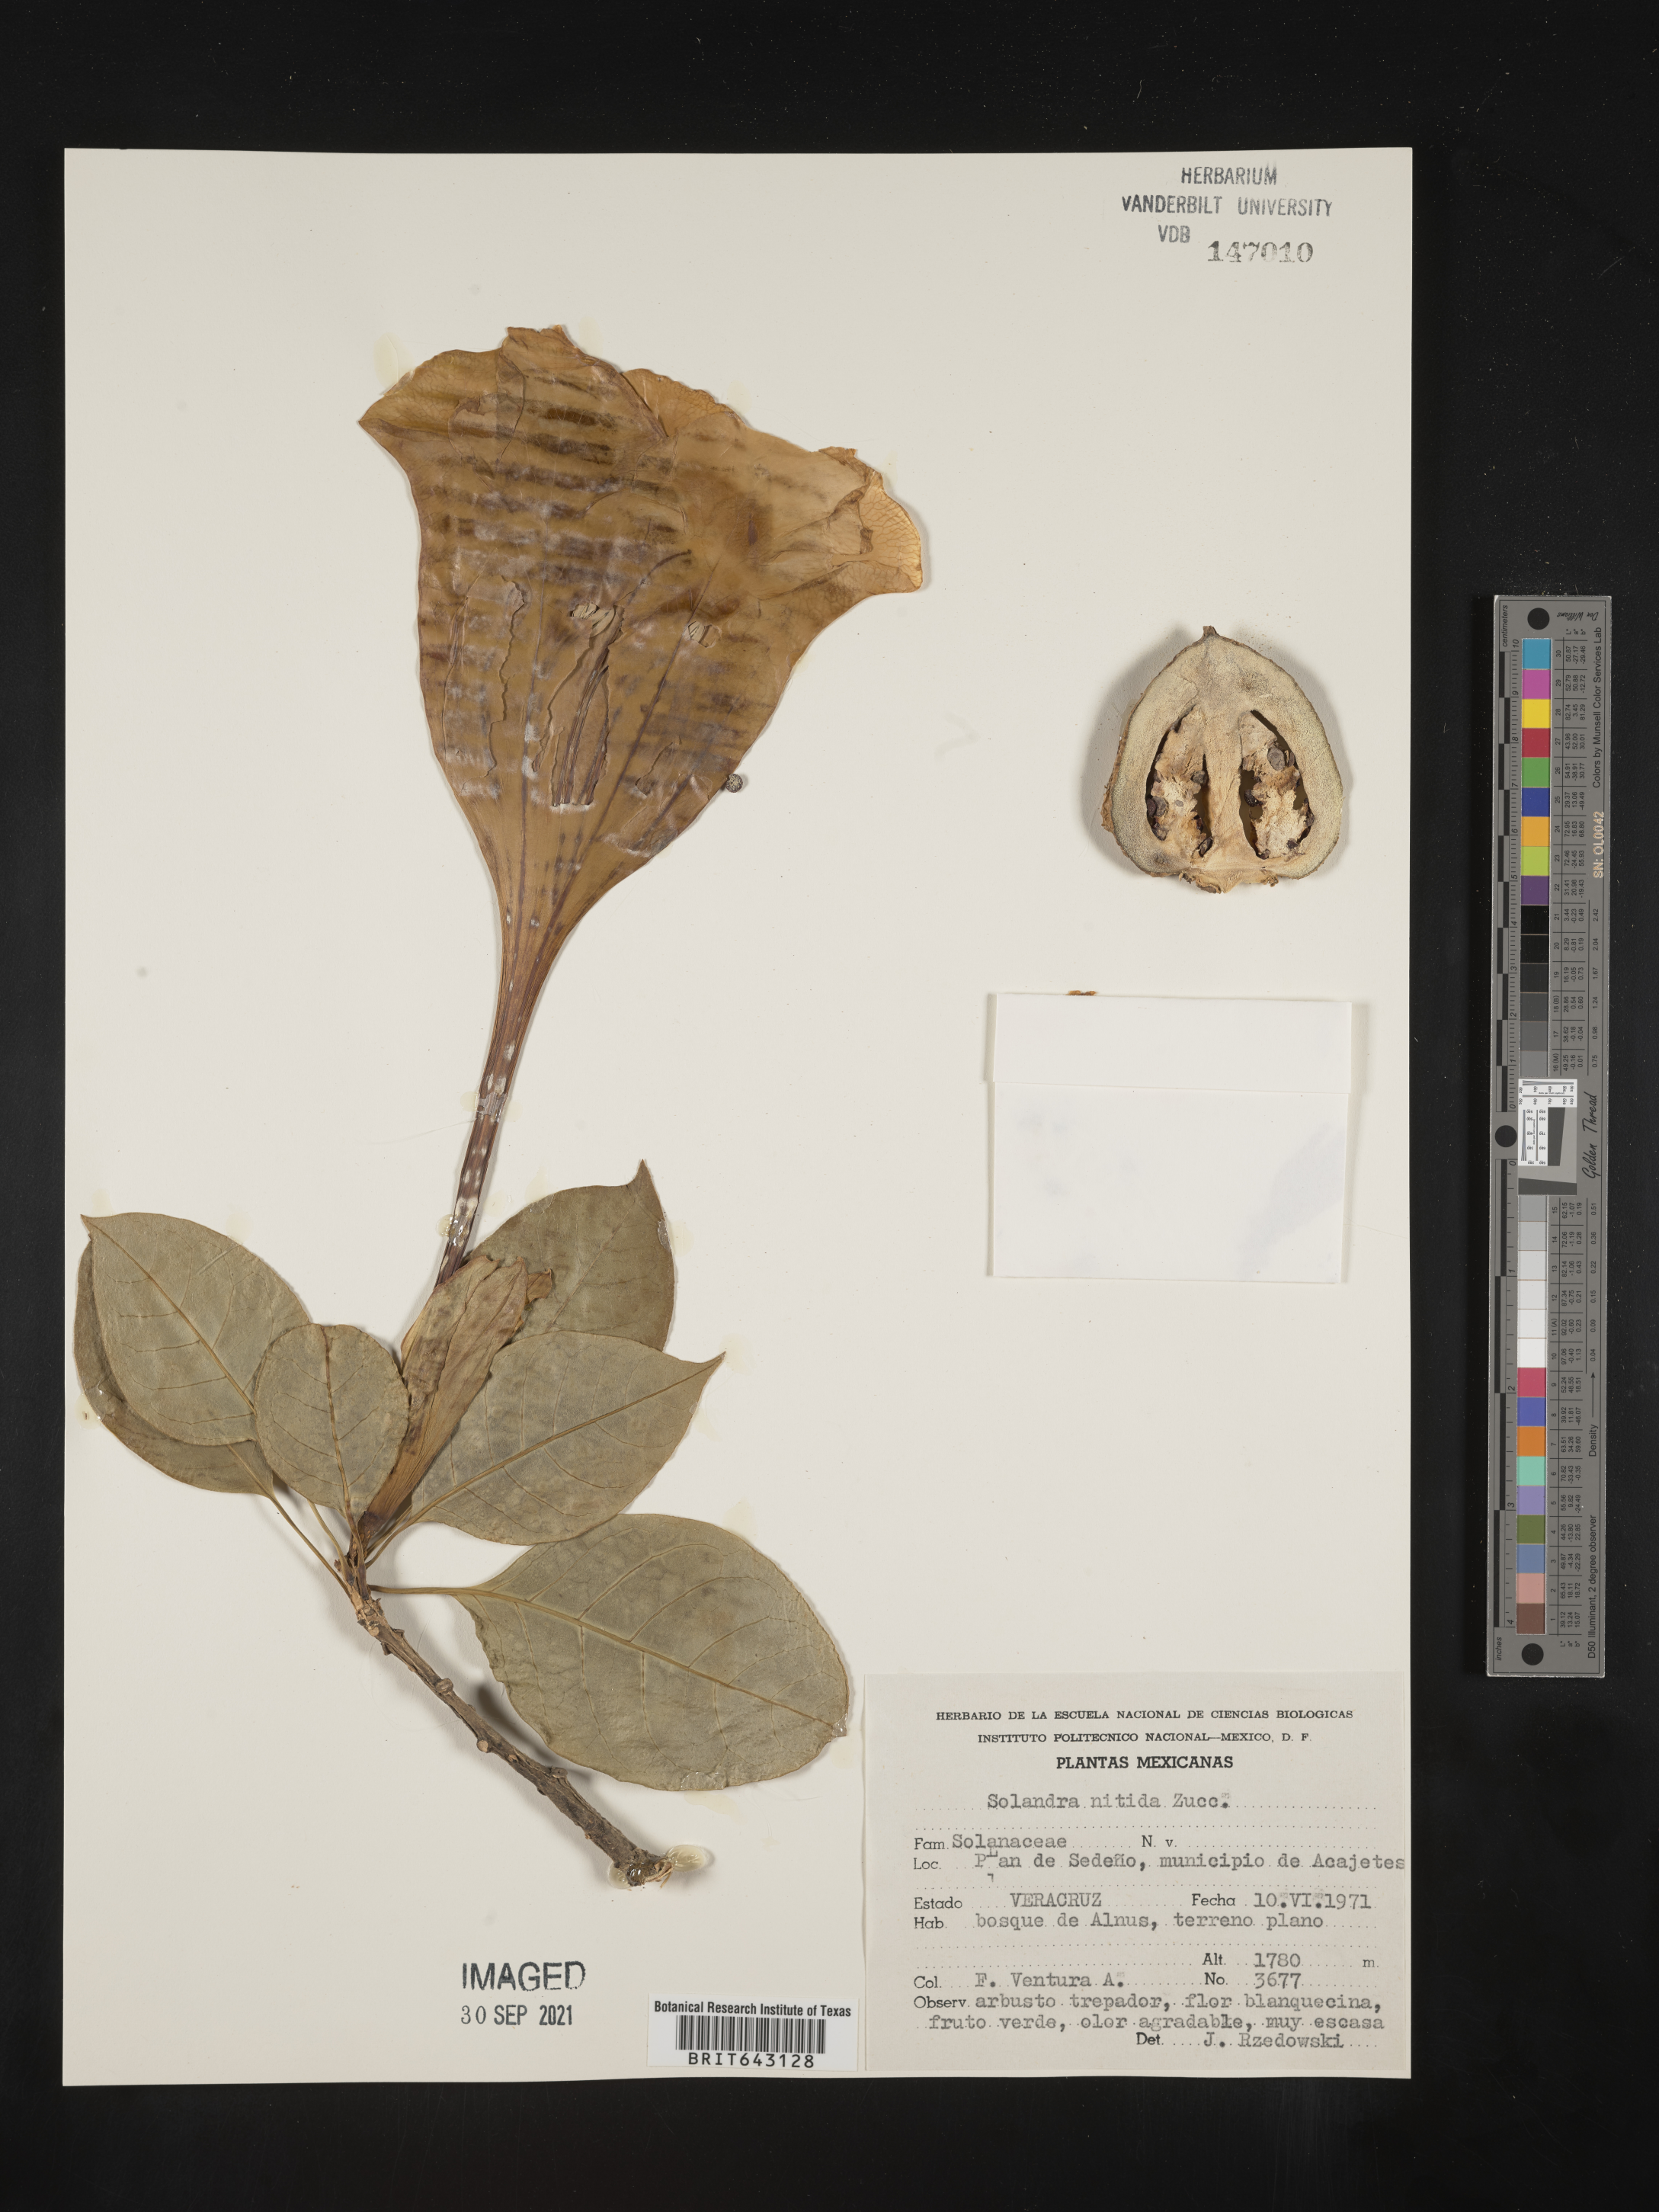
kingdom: Plantae
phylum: Tracheophyta
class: Magnoliopsida
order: Solanales
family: Solanaceae
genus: Solandra
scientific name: Solandra
